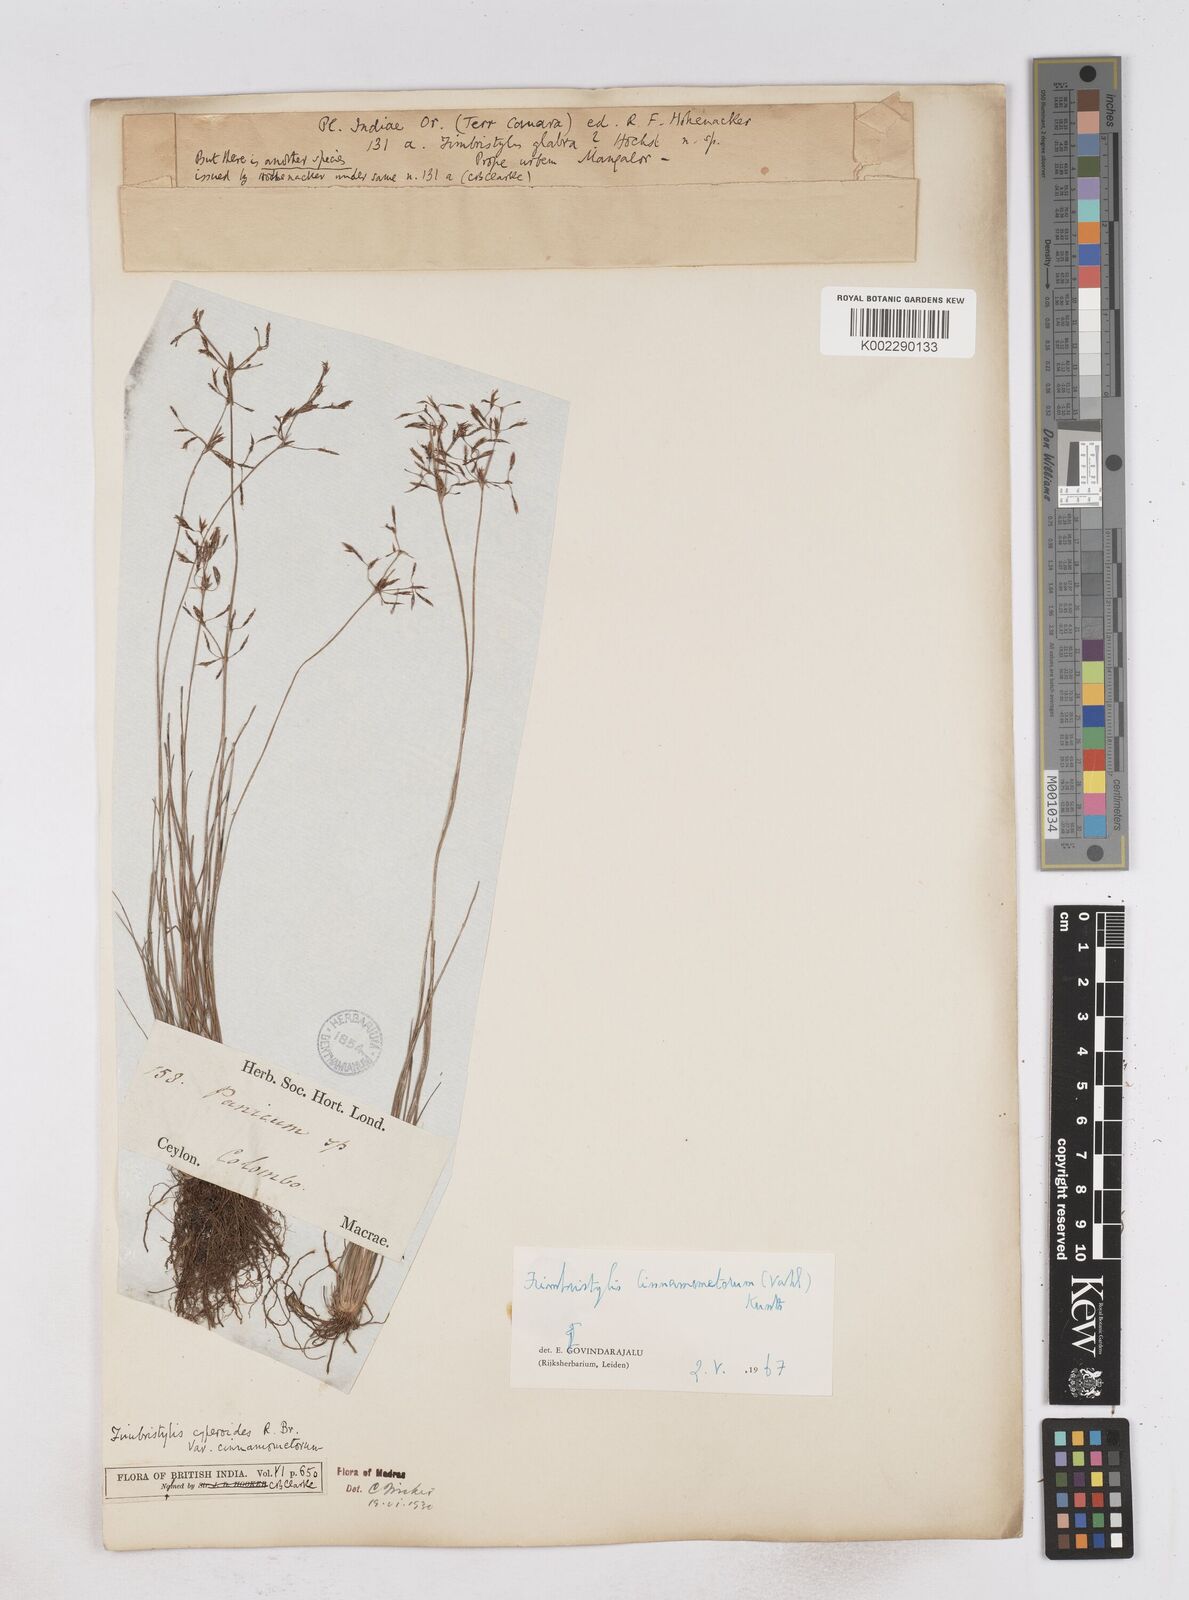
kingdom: Plantae
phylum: Tracheophyta
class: Liliopsida
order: Poales
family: Cyperaceae
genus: Fimbristylis
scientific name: Fimbristylis cinnamometorum
